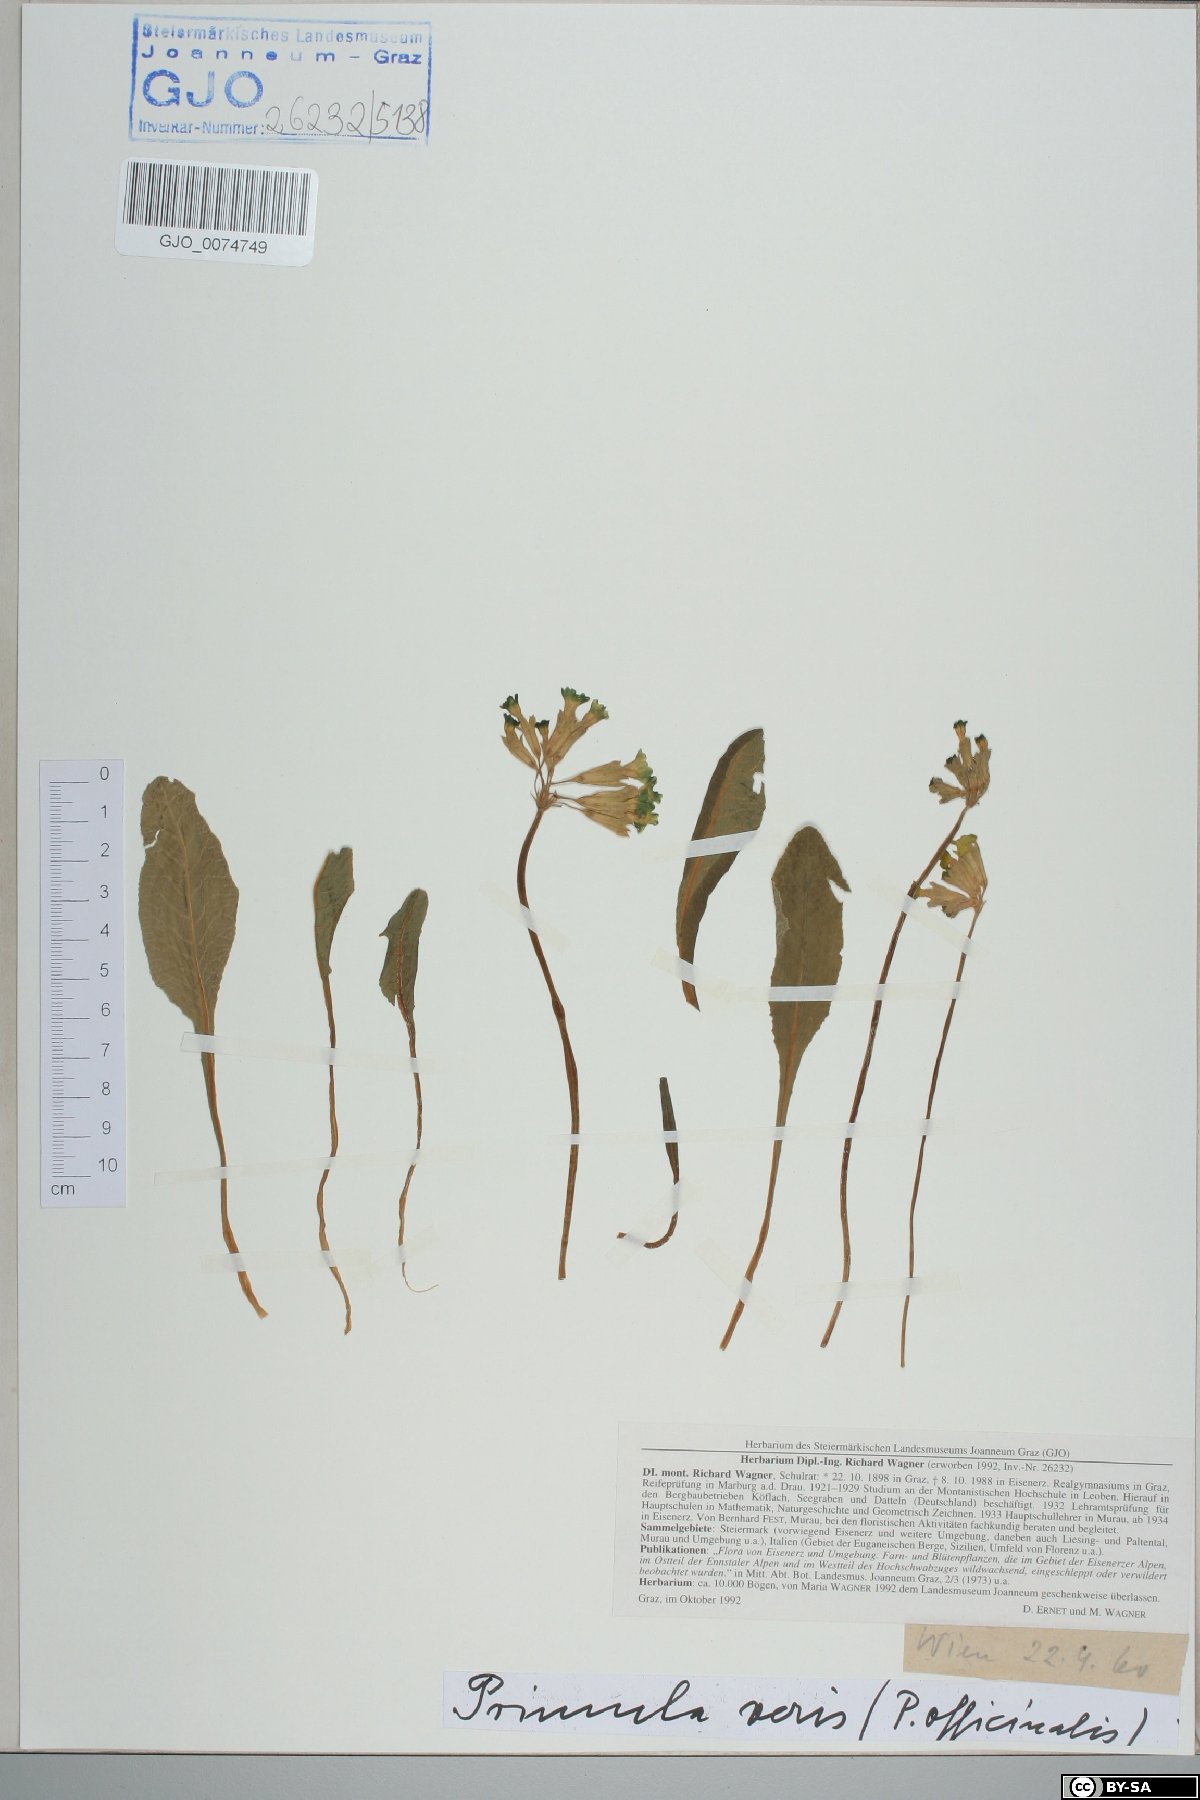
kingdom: Plantae
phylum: Tracheophyta
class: Magnoliopsida
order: Ericales
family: Primulaceae
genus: Primula
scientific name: Primula veris
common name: Cowslip
